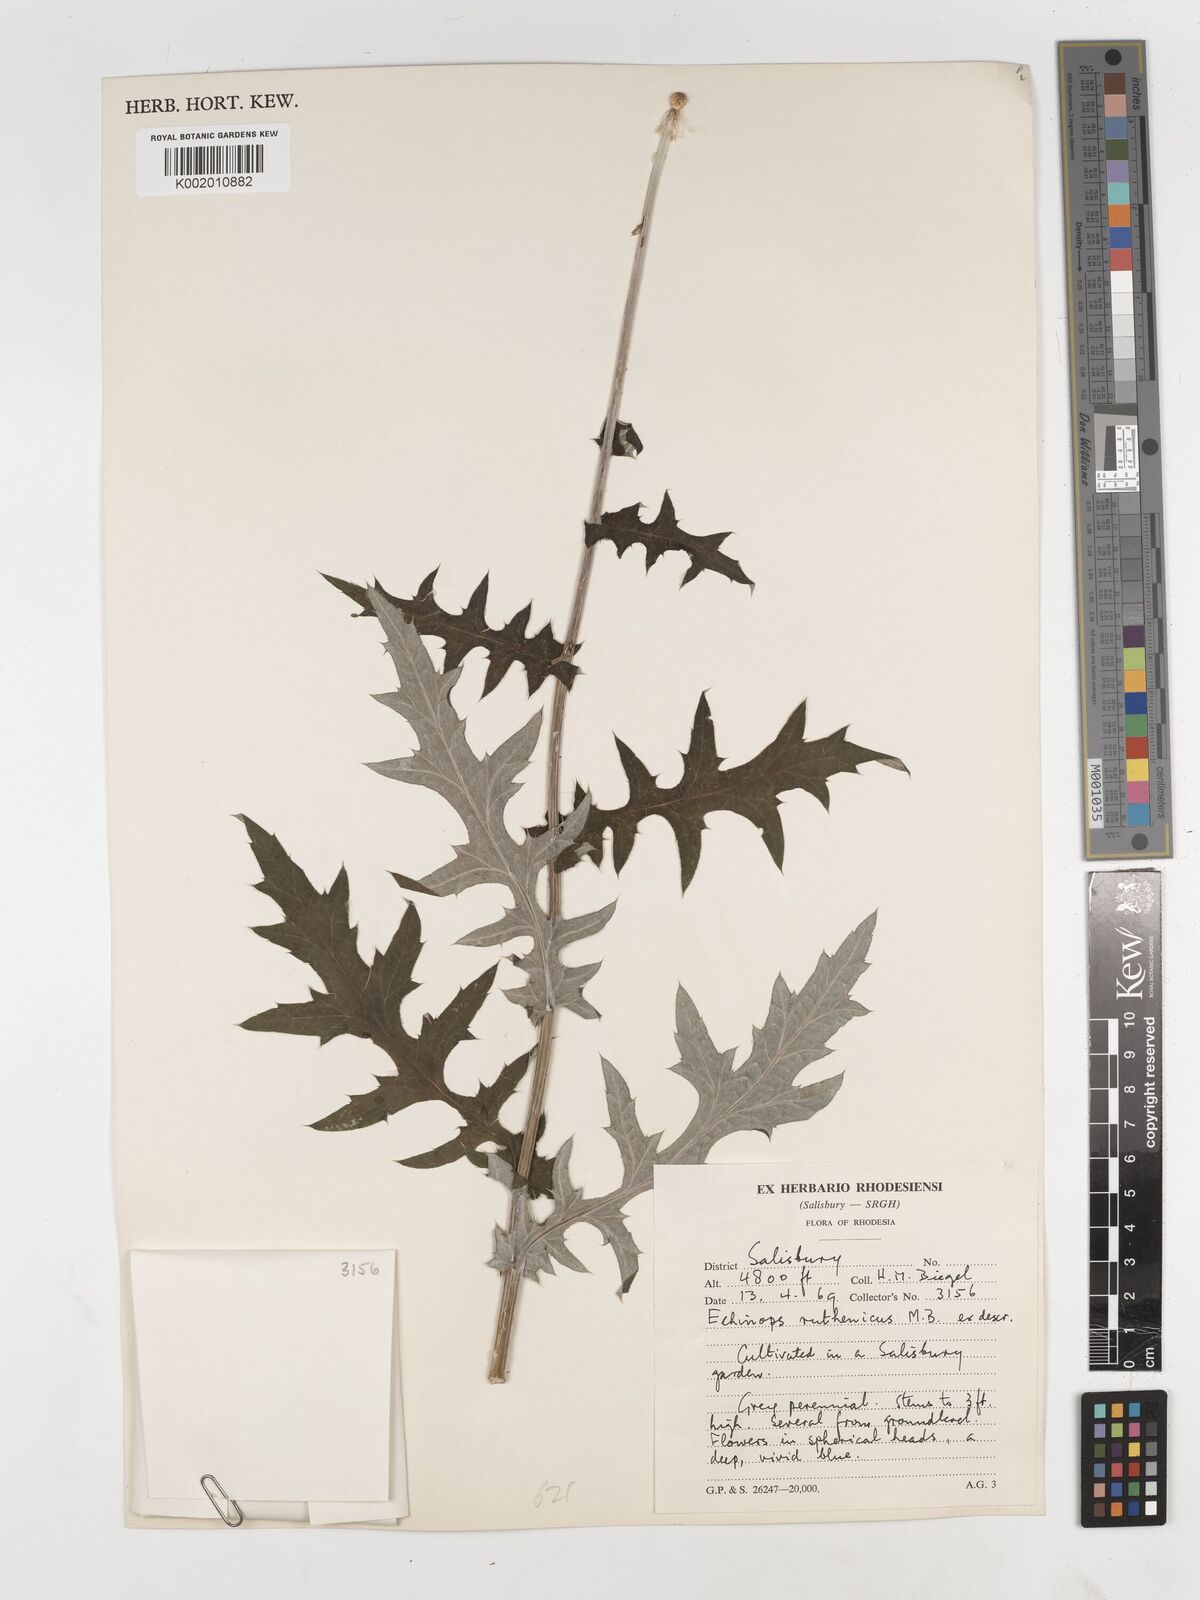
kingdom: Plantae
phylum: Tracheophyta
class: Magnoliopsida
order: Asterales
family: Asteraceae
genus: Echinops
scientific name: Echinops
